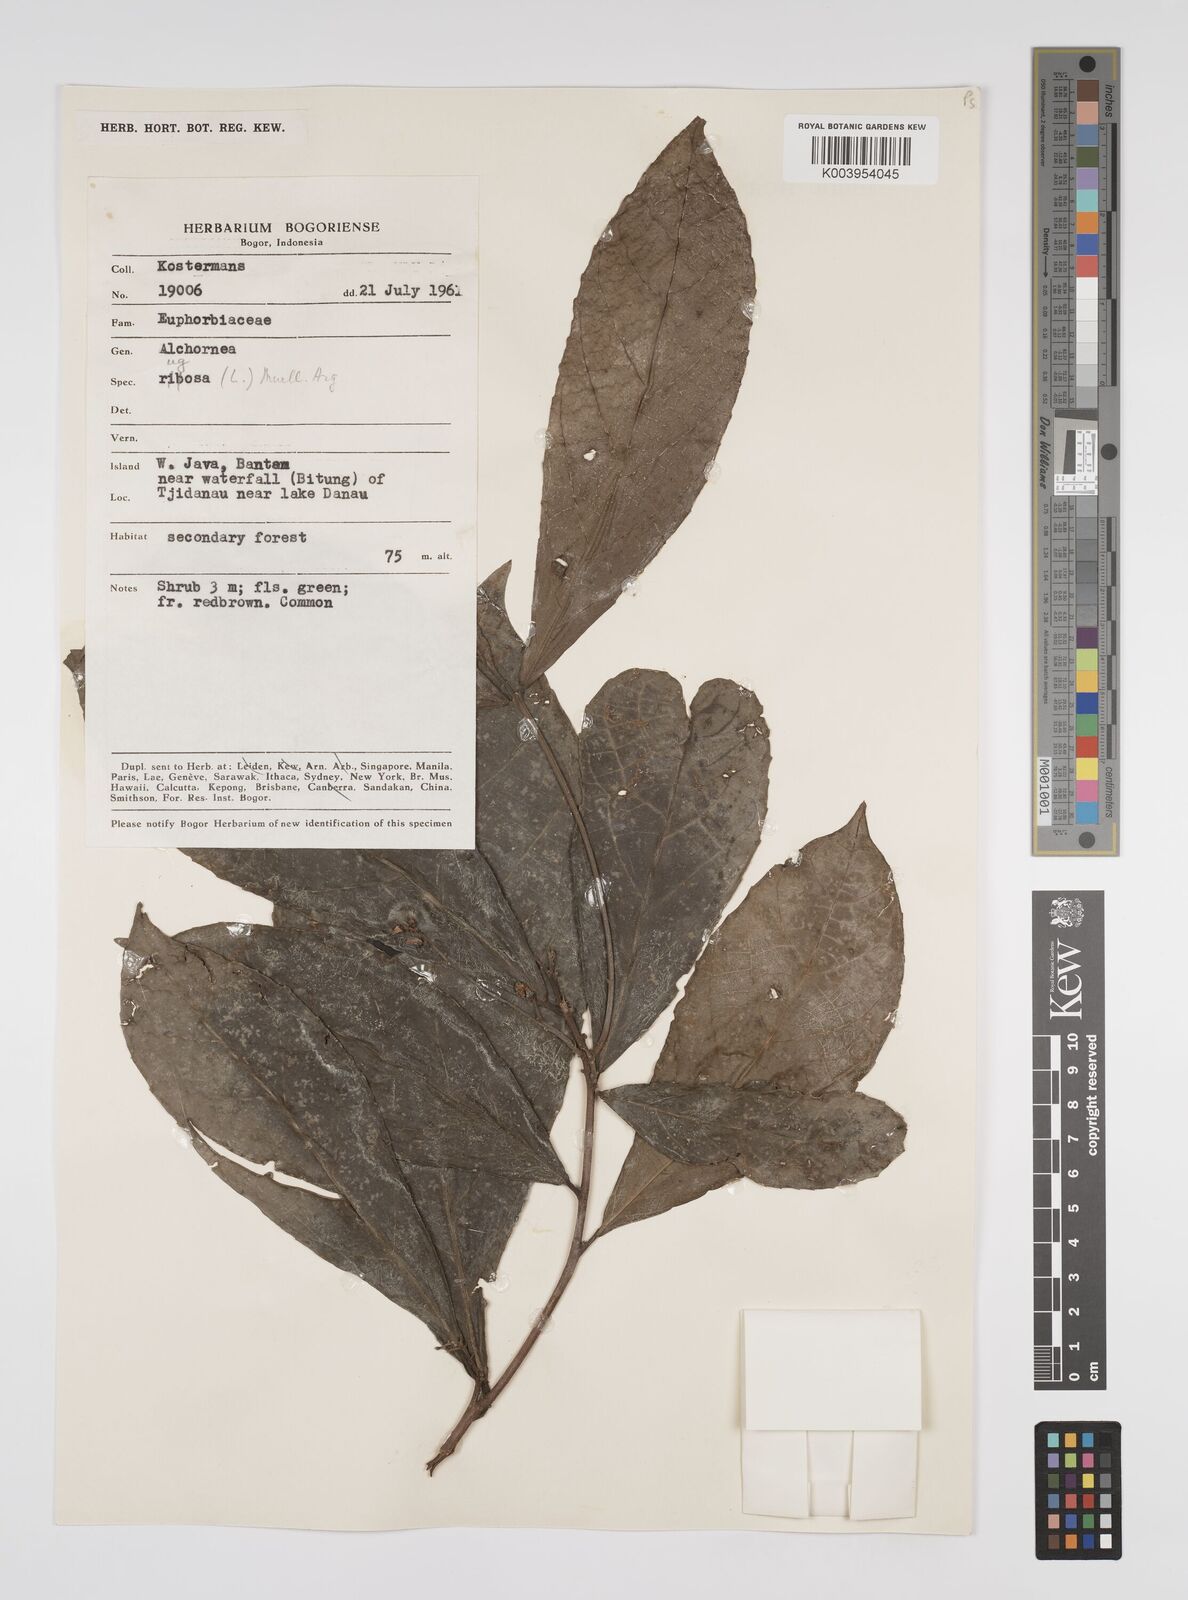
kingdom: Plantae
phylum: Tracheophyta
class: Magnoliopsida
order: Malpighiales
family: Euphorbiaceae
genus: Alchornea
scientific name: Alchornea rugosa
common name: Alchorntree
